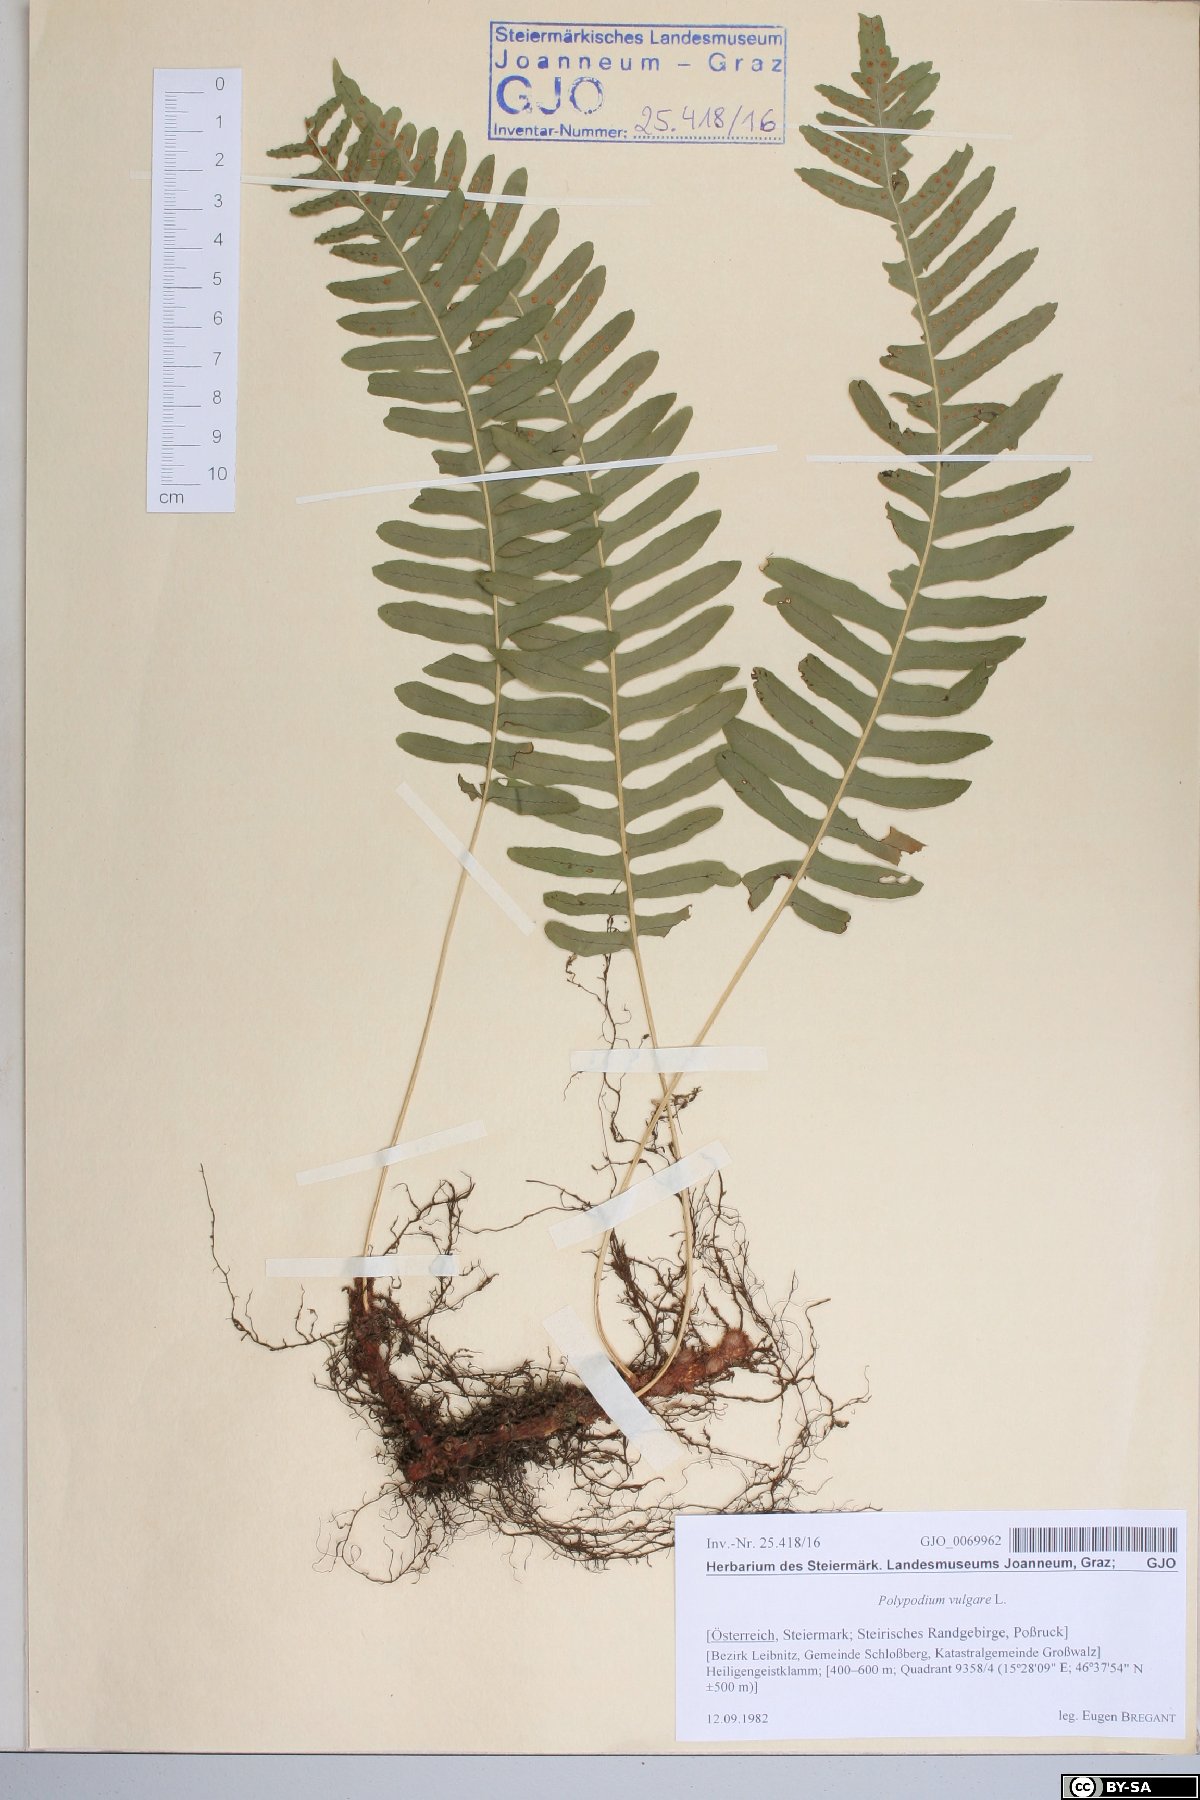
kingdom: Plantae
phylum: Tracheophyta
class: Polypodiopsida
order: Polypodiales
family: Polypodiaceae
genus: Polypodium
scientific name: Polypodium vulgare
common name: Common polypody
